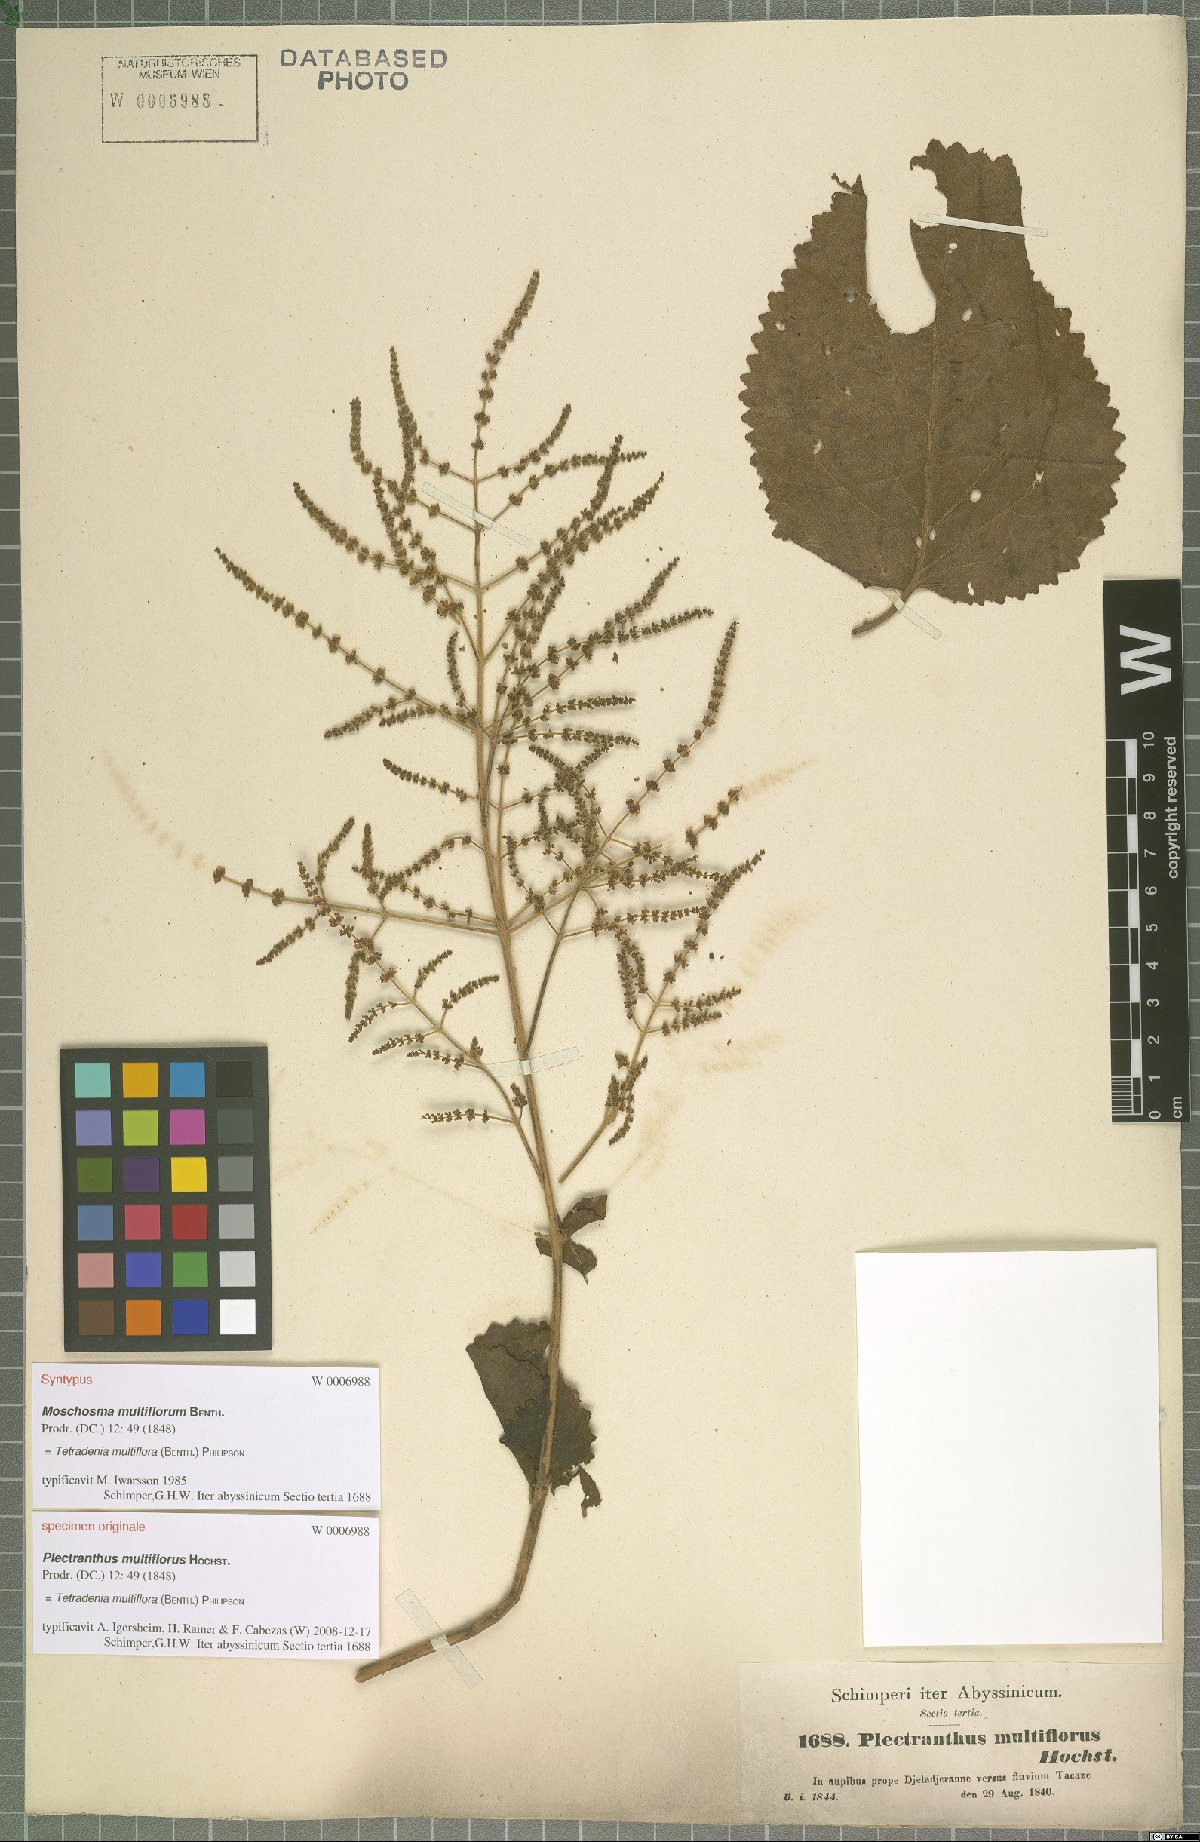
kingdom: Plantae
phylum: Tracheophyta
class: Magnoliopsida
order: Lamiales
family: Lamiaceae
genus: Tetradenia
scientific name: Tetradenia multiflora
